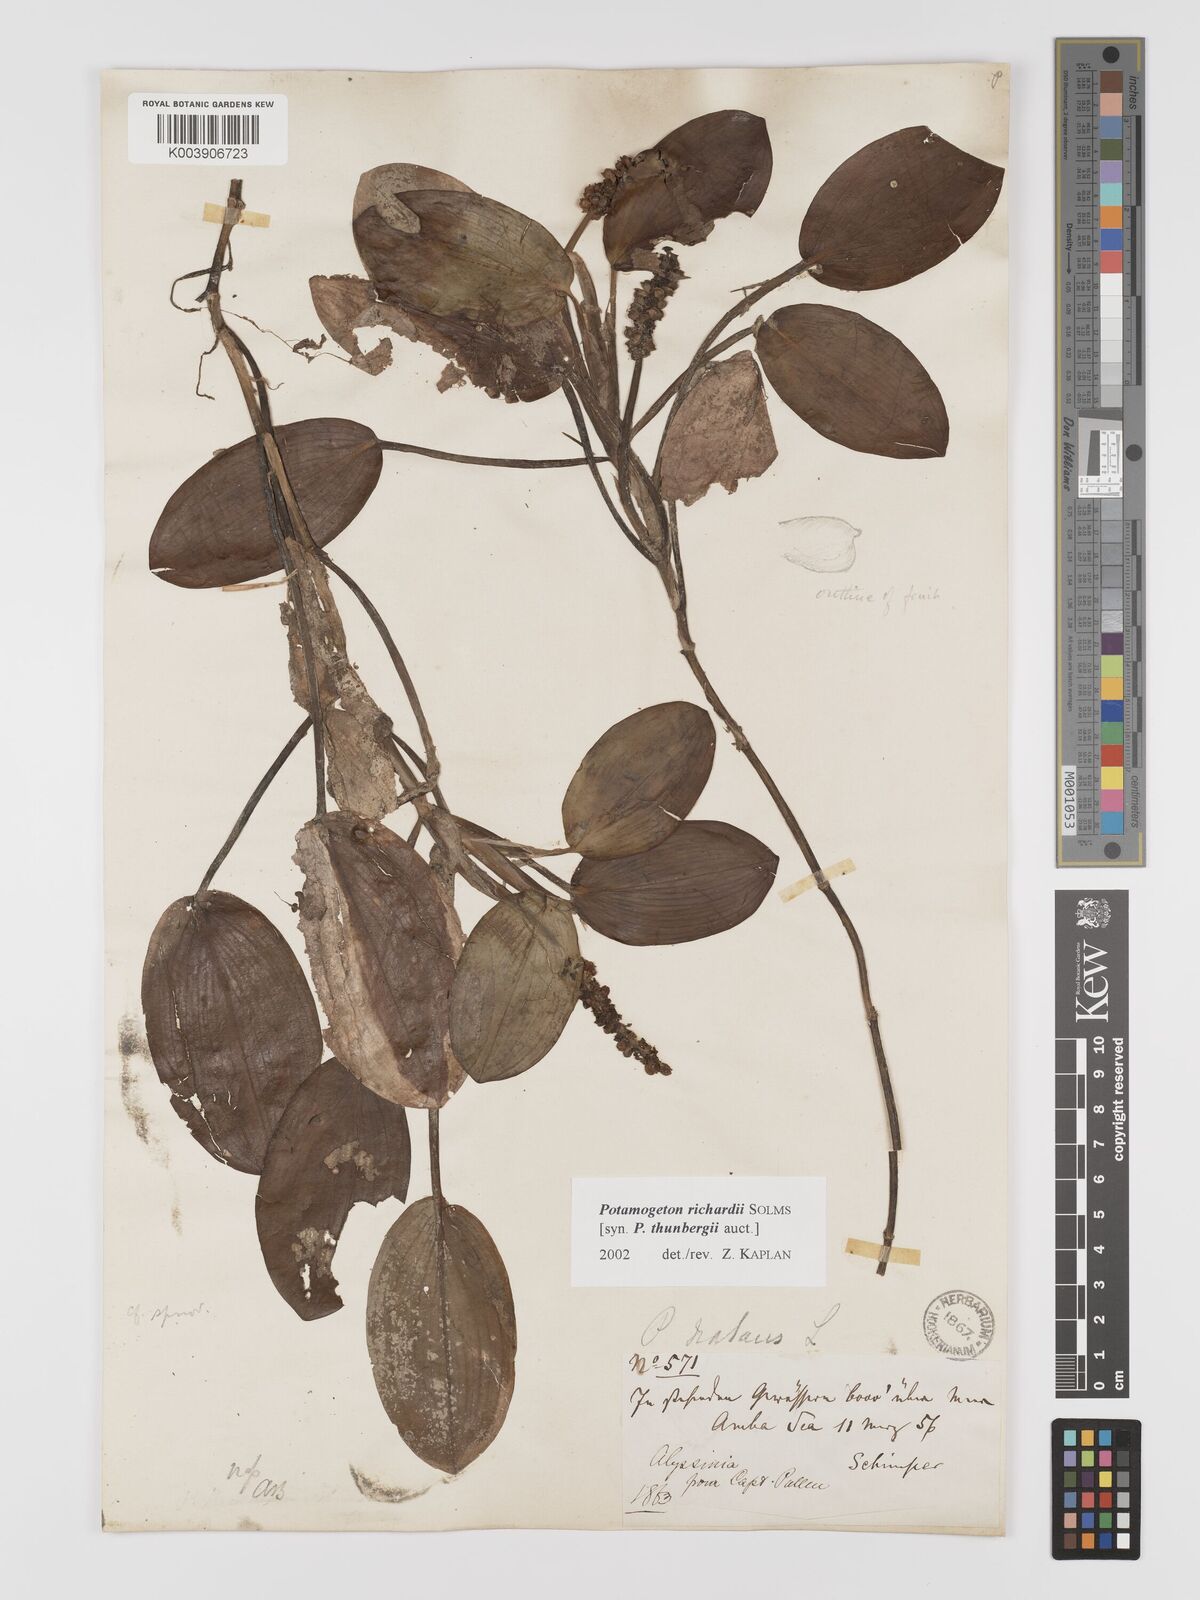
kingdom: Plantae
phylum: Tracheophyta
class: Liliopsida
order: Alismatales
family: Potamogetonaceae
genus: Potamogeton
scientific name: Potamogeton nodosus
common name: Loddon pondweed
